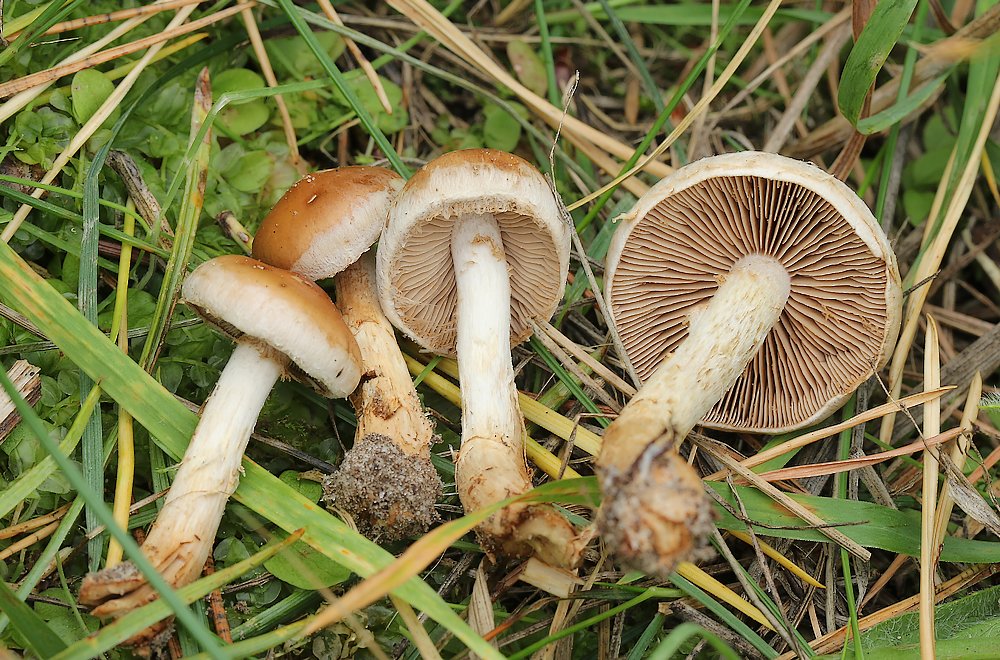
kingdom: Fungi
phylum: Basidiomycota
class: Agaricomycetes
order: Agaricales
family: Hymenogastraceae
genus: Hebeloma
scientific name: Hebeloma
